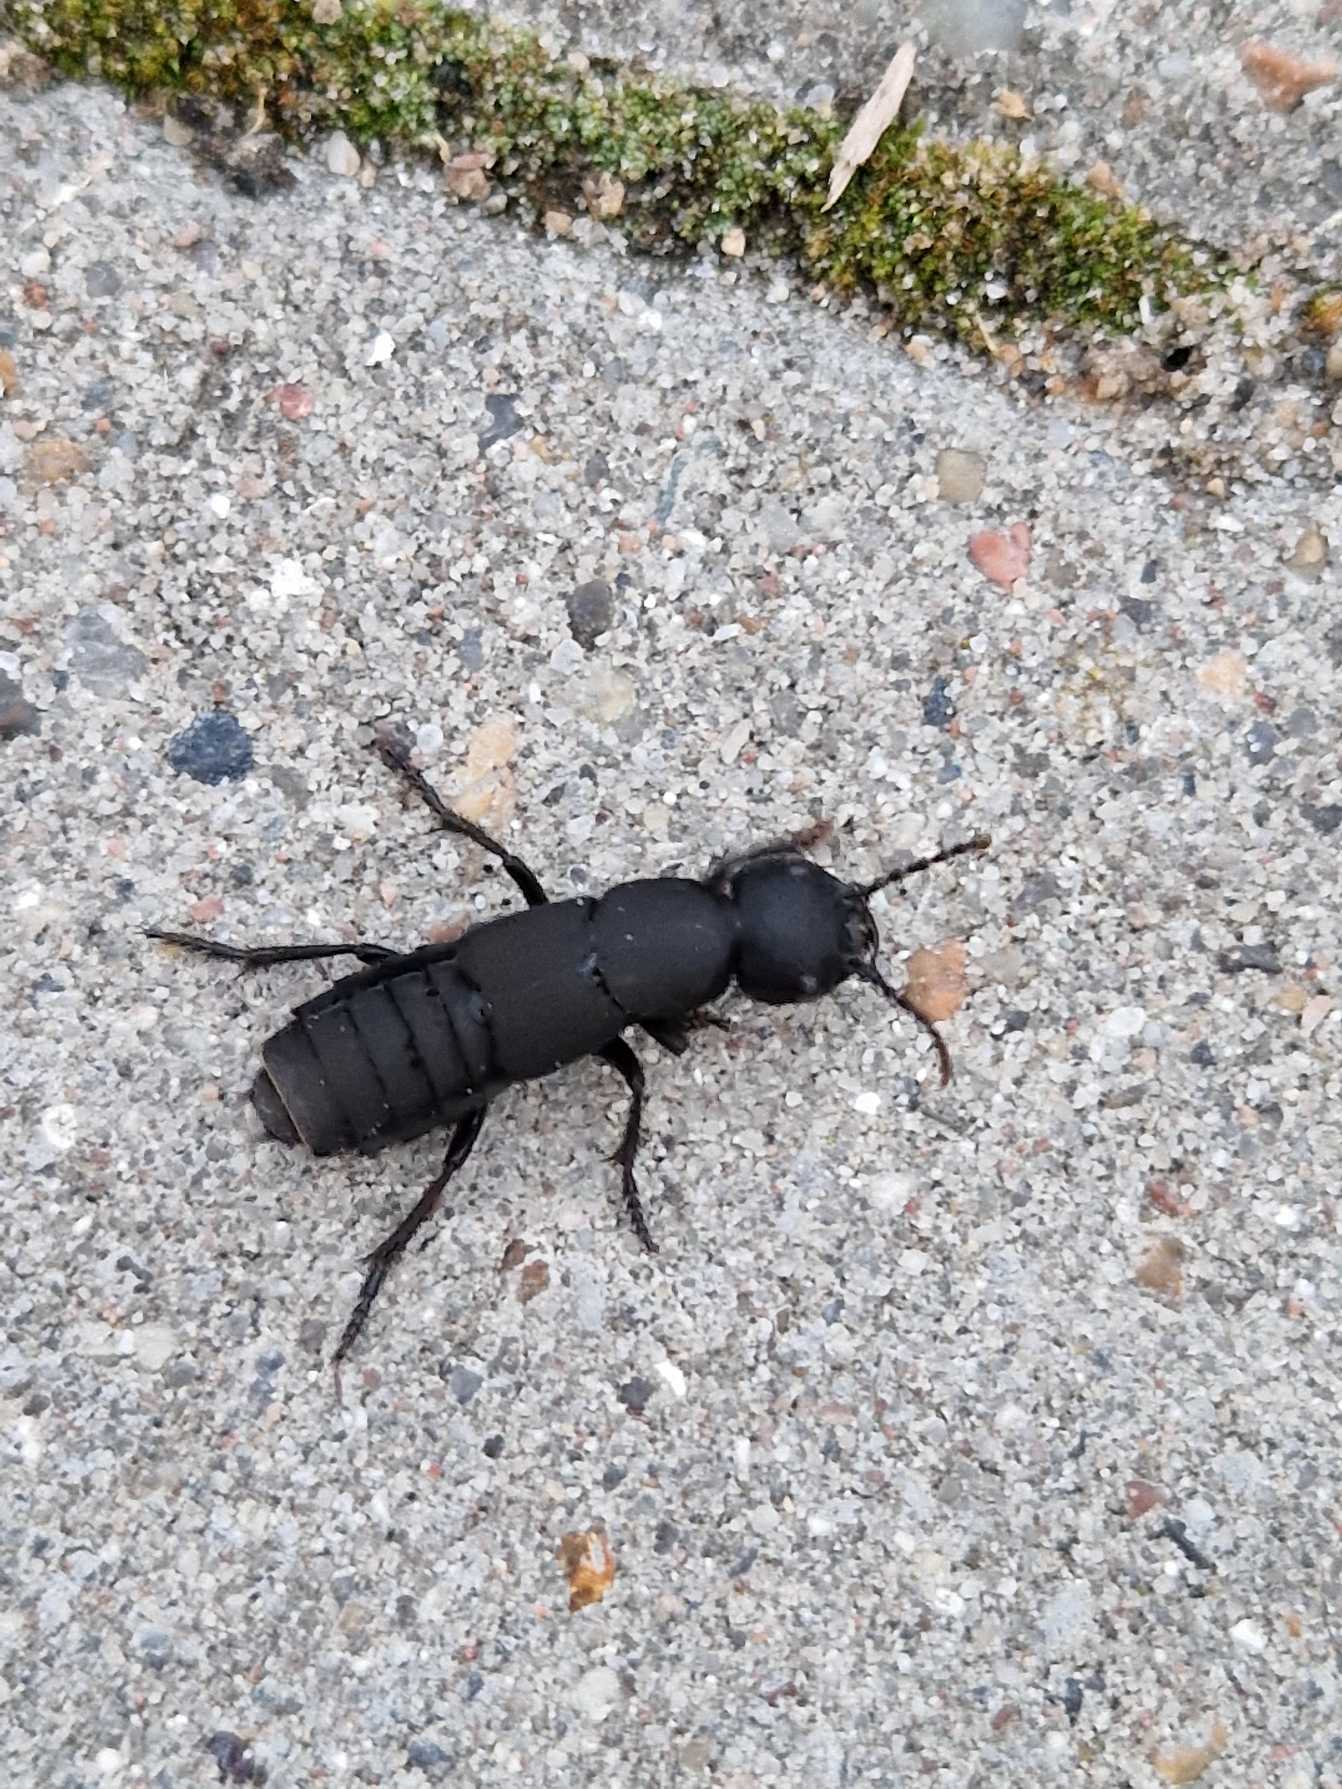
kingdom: Animalia
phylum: Arthropoda
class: Insecta
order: Coleoptera
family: Staphylinidae
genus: Ocypus
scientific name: Ocypus olens
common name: Stor rovbille
